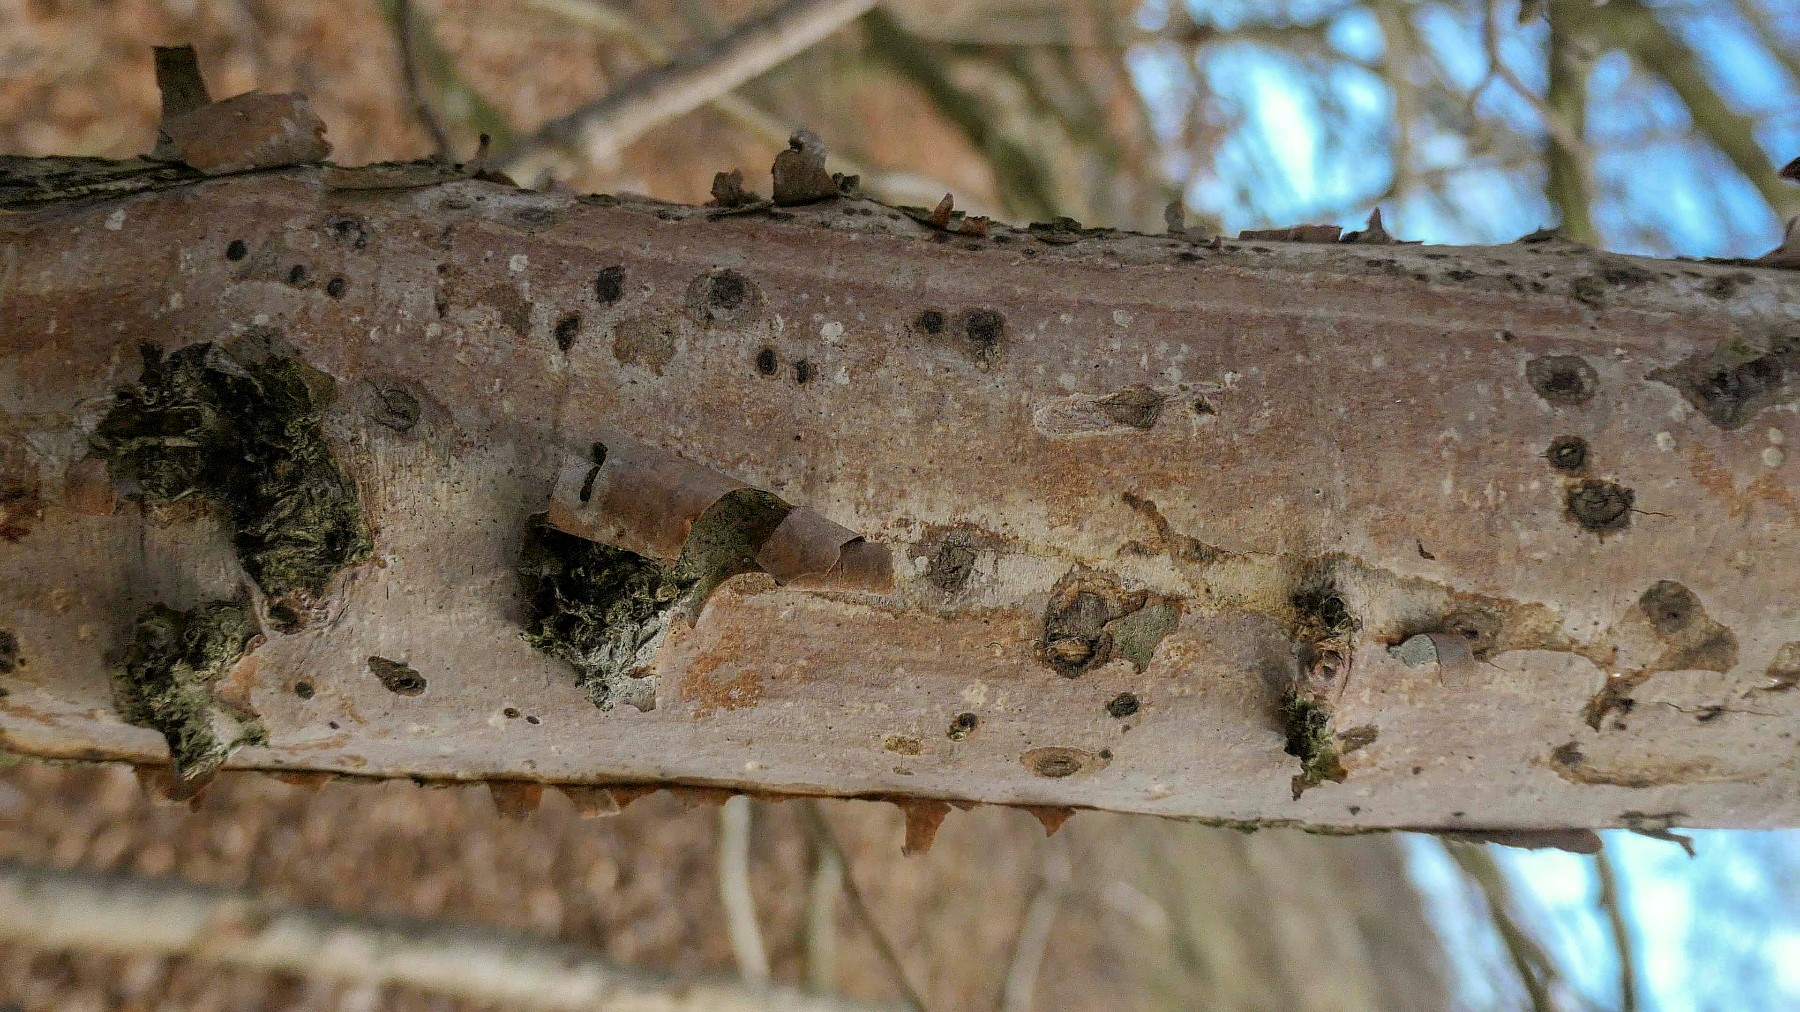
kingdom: Fungi
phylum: Basidiomycota
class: Agaricomycetes
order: Corticiales
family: Vuilleminiaceae
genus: Vuilleminia
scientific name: Vuilleminia coryli
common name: hassel-barksprænger
